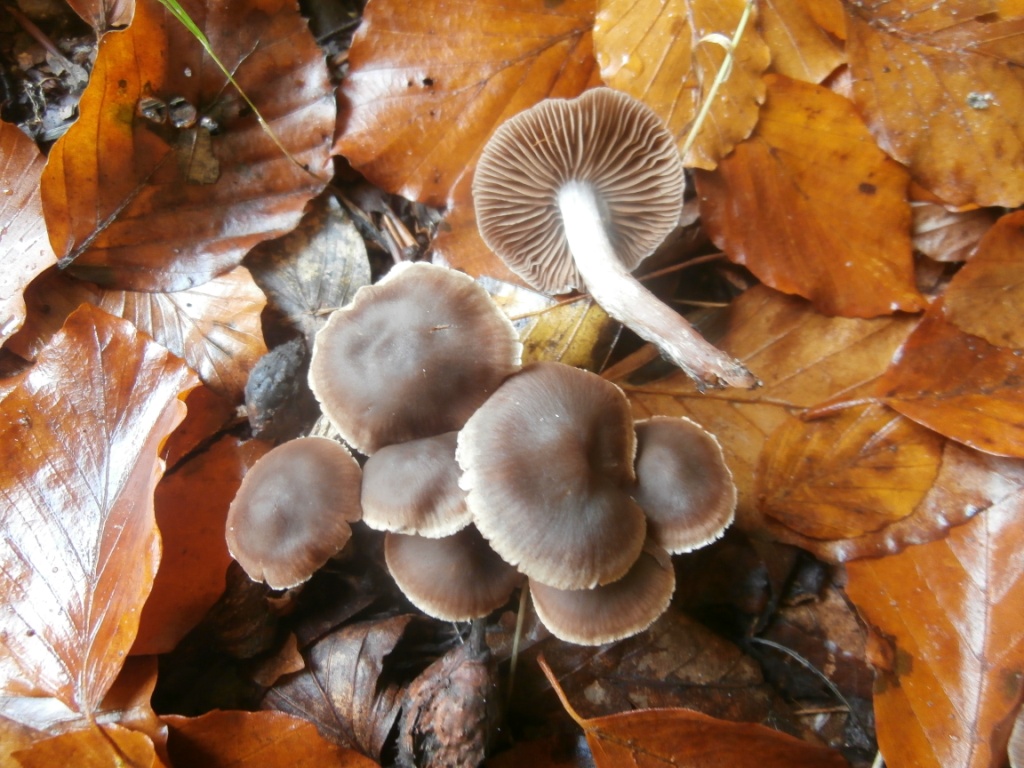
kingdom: Fungi
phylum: Basidiomycota
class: Agaricomycetes
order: Agaricales
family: Strophariaceae
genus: Pholiota
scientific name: Pholiota lenta
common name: løv-skælhat
